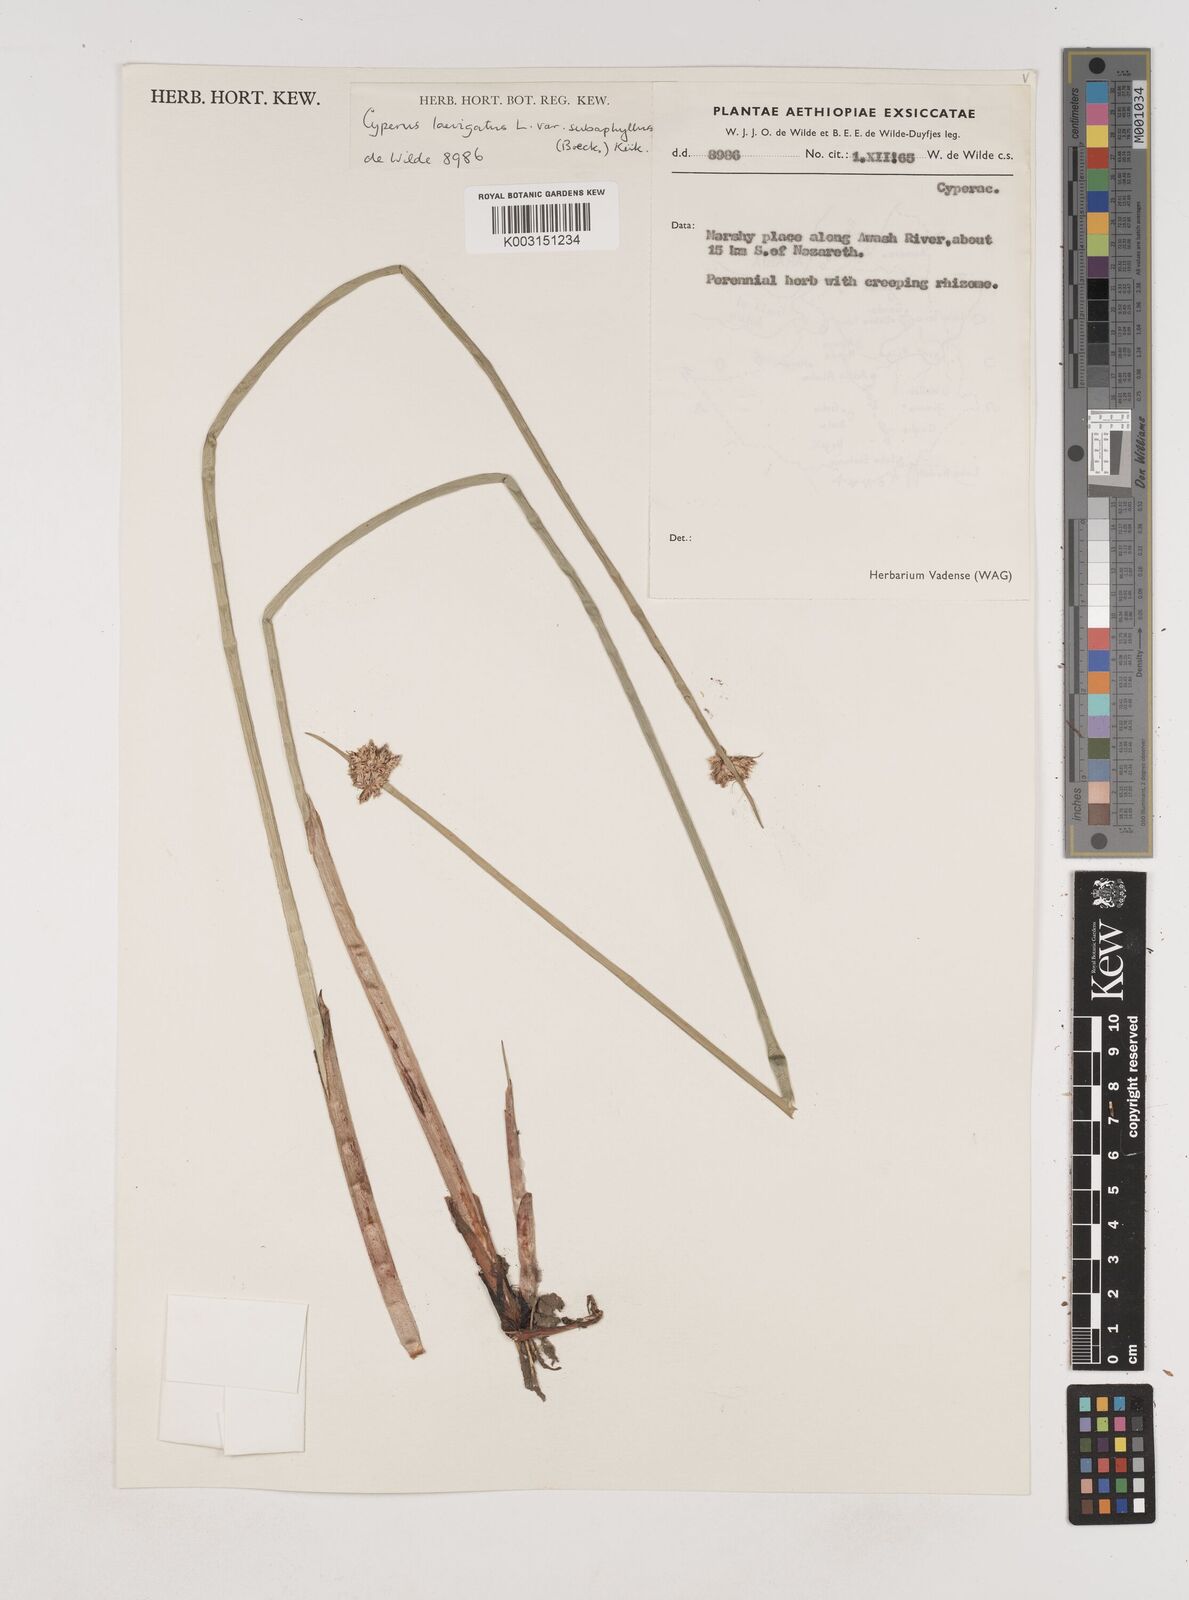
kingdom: Plantae
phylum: Tracheophyta
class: Liliopsida
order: Poales
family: Cyperaceae
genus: Cyperus
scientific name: Cyperus laevigatus
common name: Smooth flat sedge
